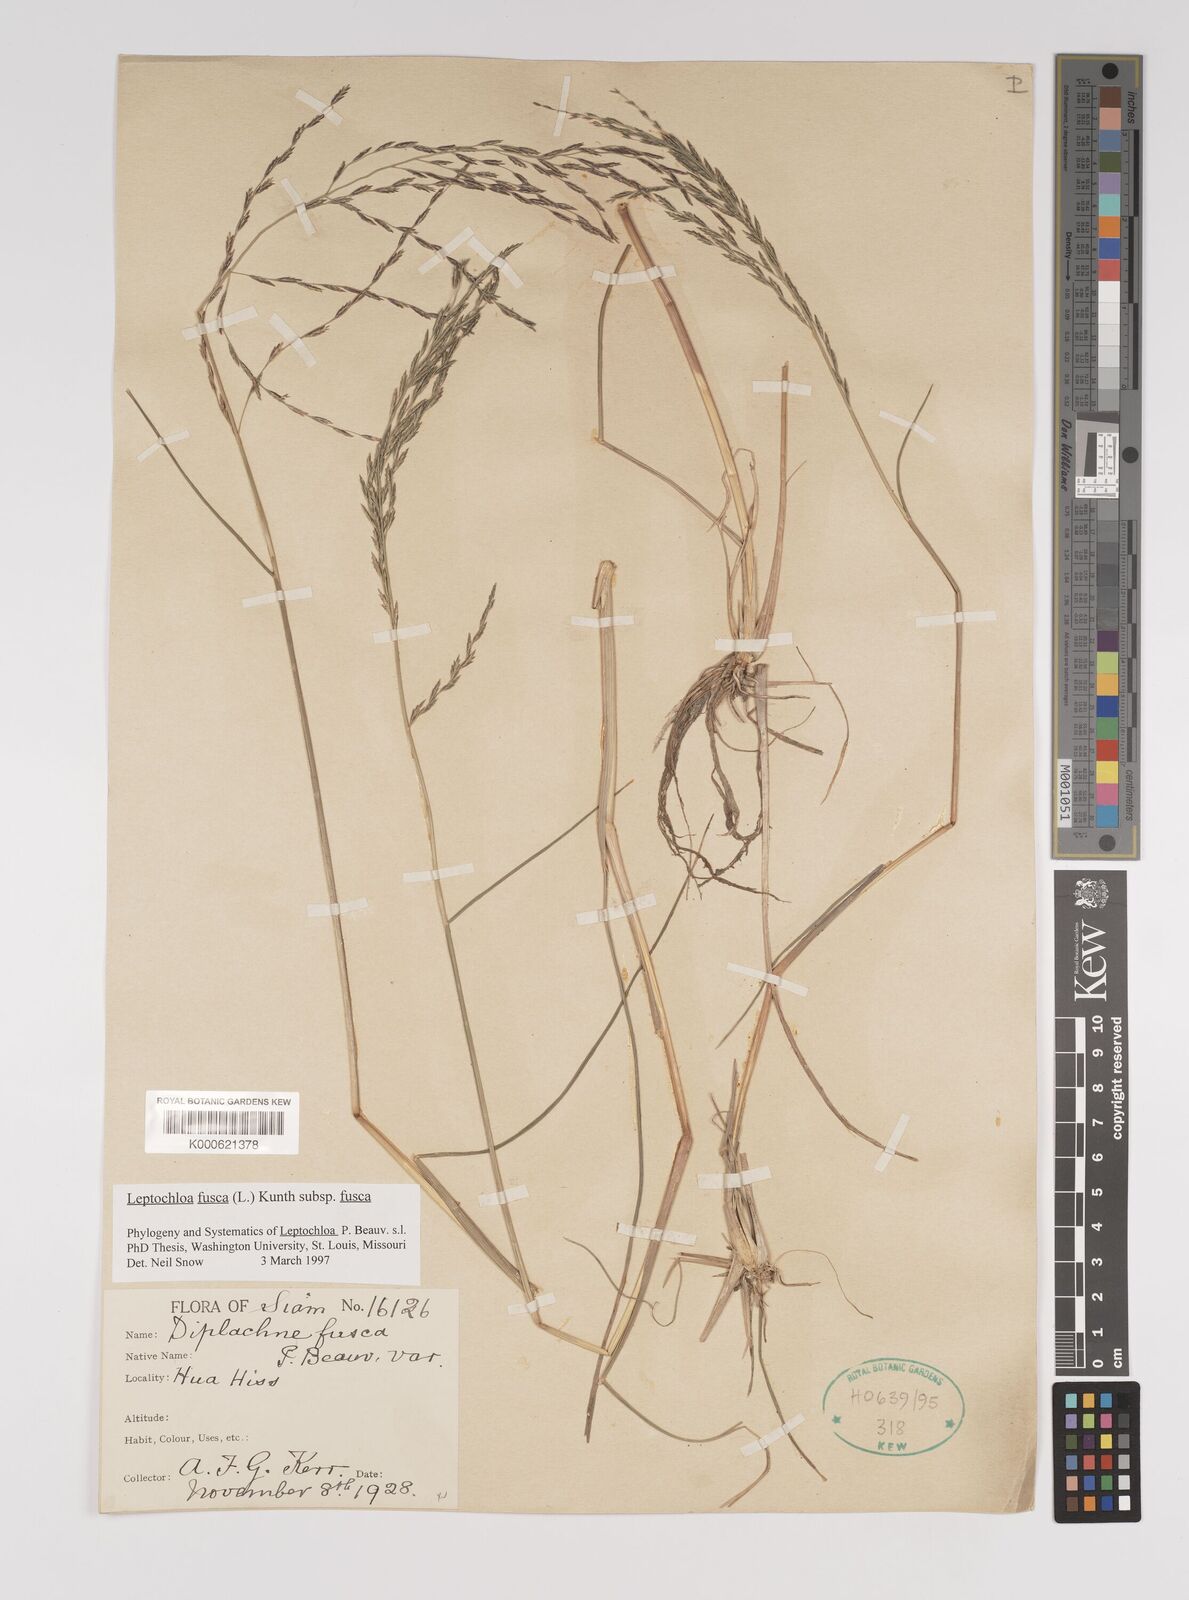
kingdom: Plantae
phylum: Tracheophyta
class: Liliopsida
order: Poales
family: Poaceae
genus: Diplachne
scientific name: Diplachne fusca
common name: Brown beetle grass
